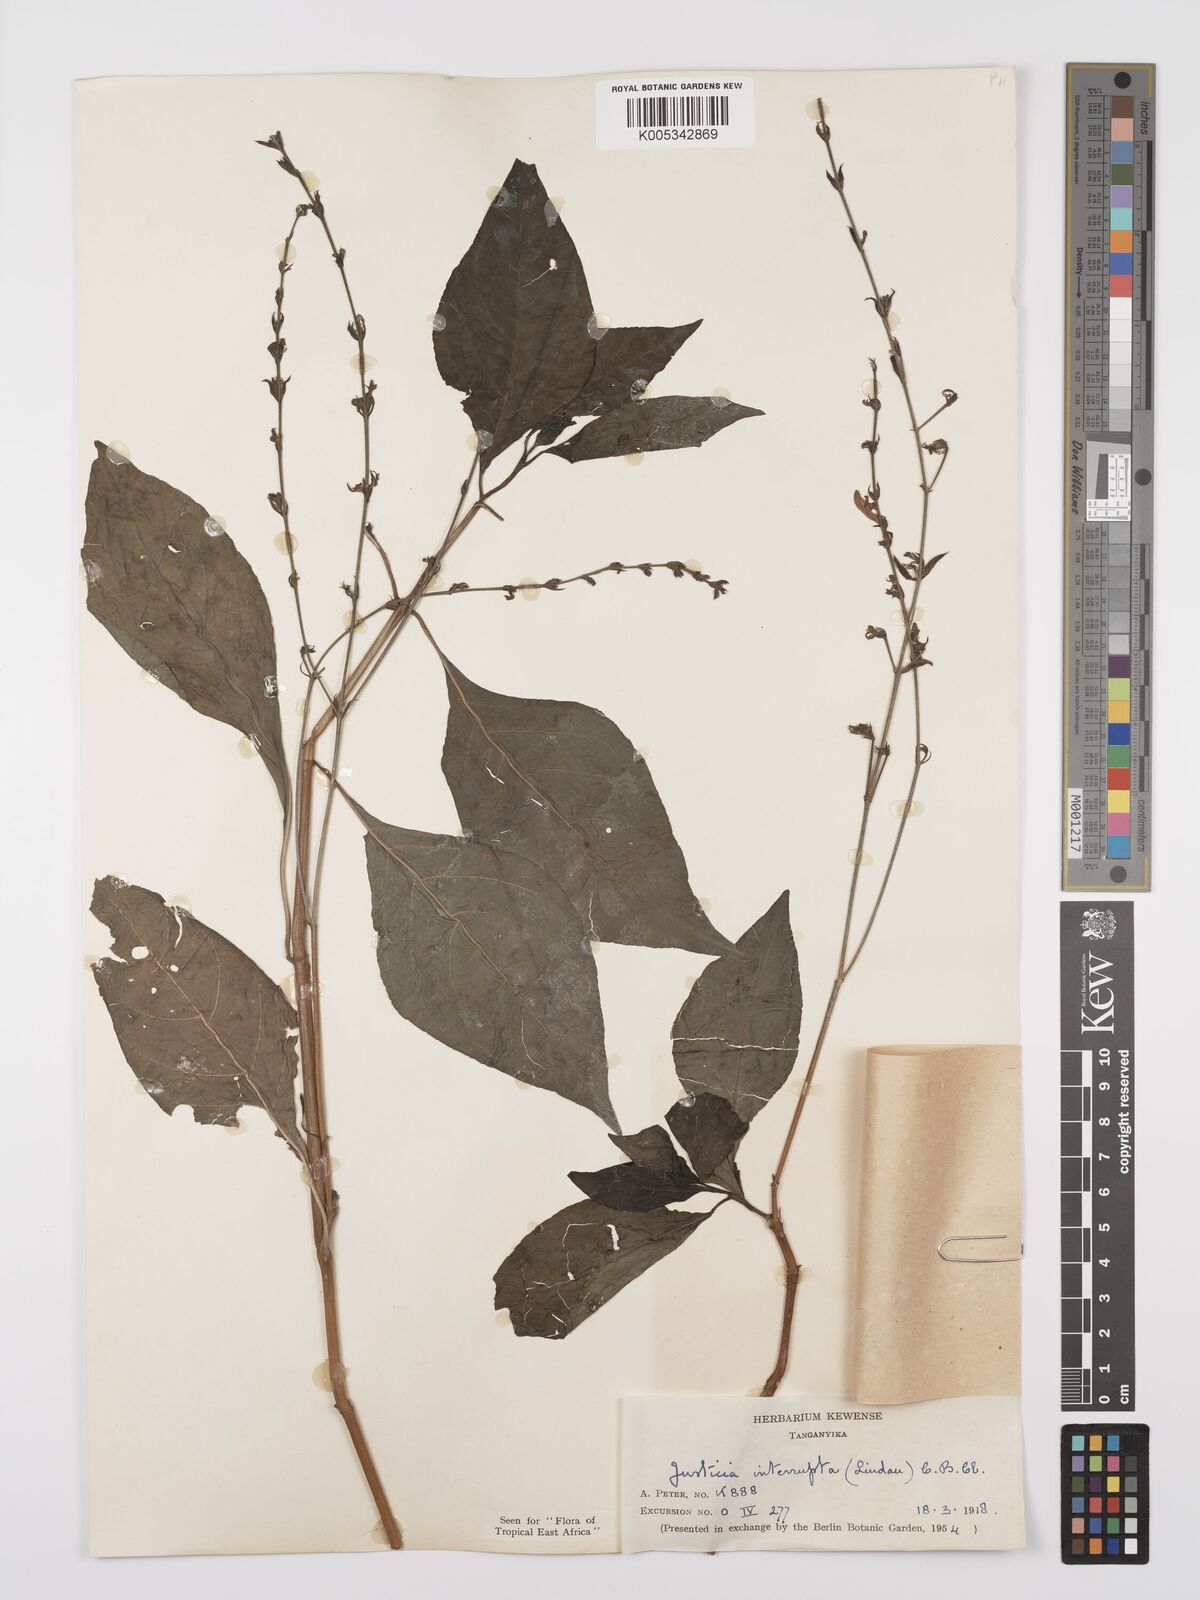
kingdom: Plantae
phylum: Tracheophyta
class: Magnoliopsida
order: Lamiales
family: Acanthaceae
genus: Justicia
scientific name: Justicia plectranthoides
